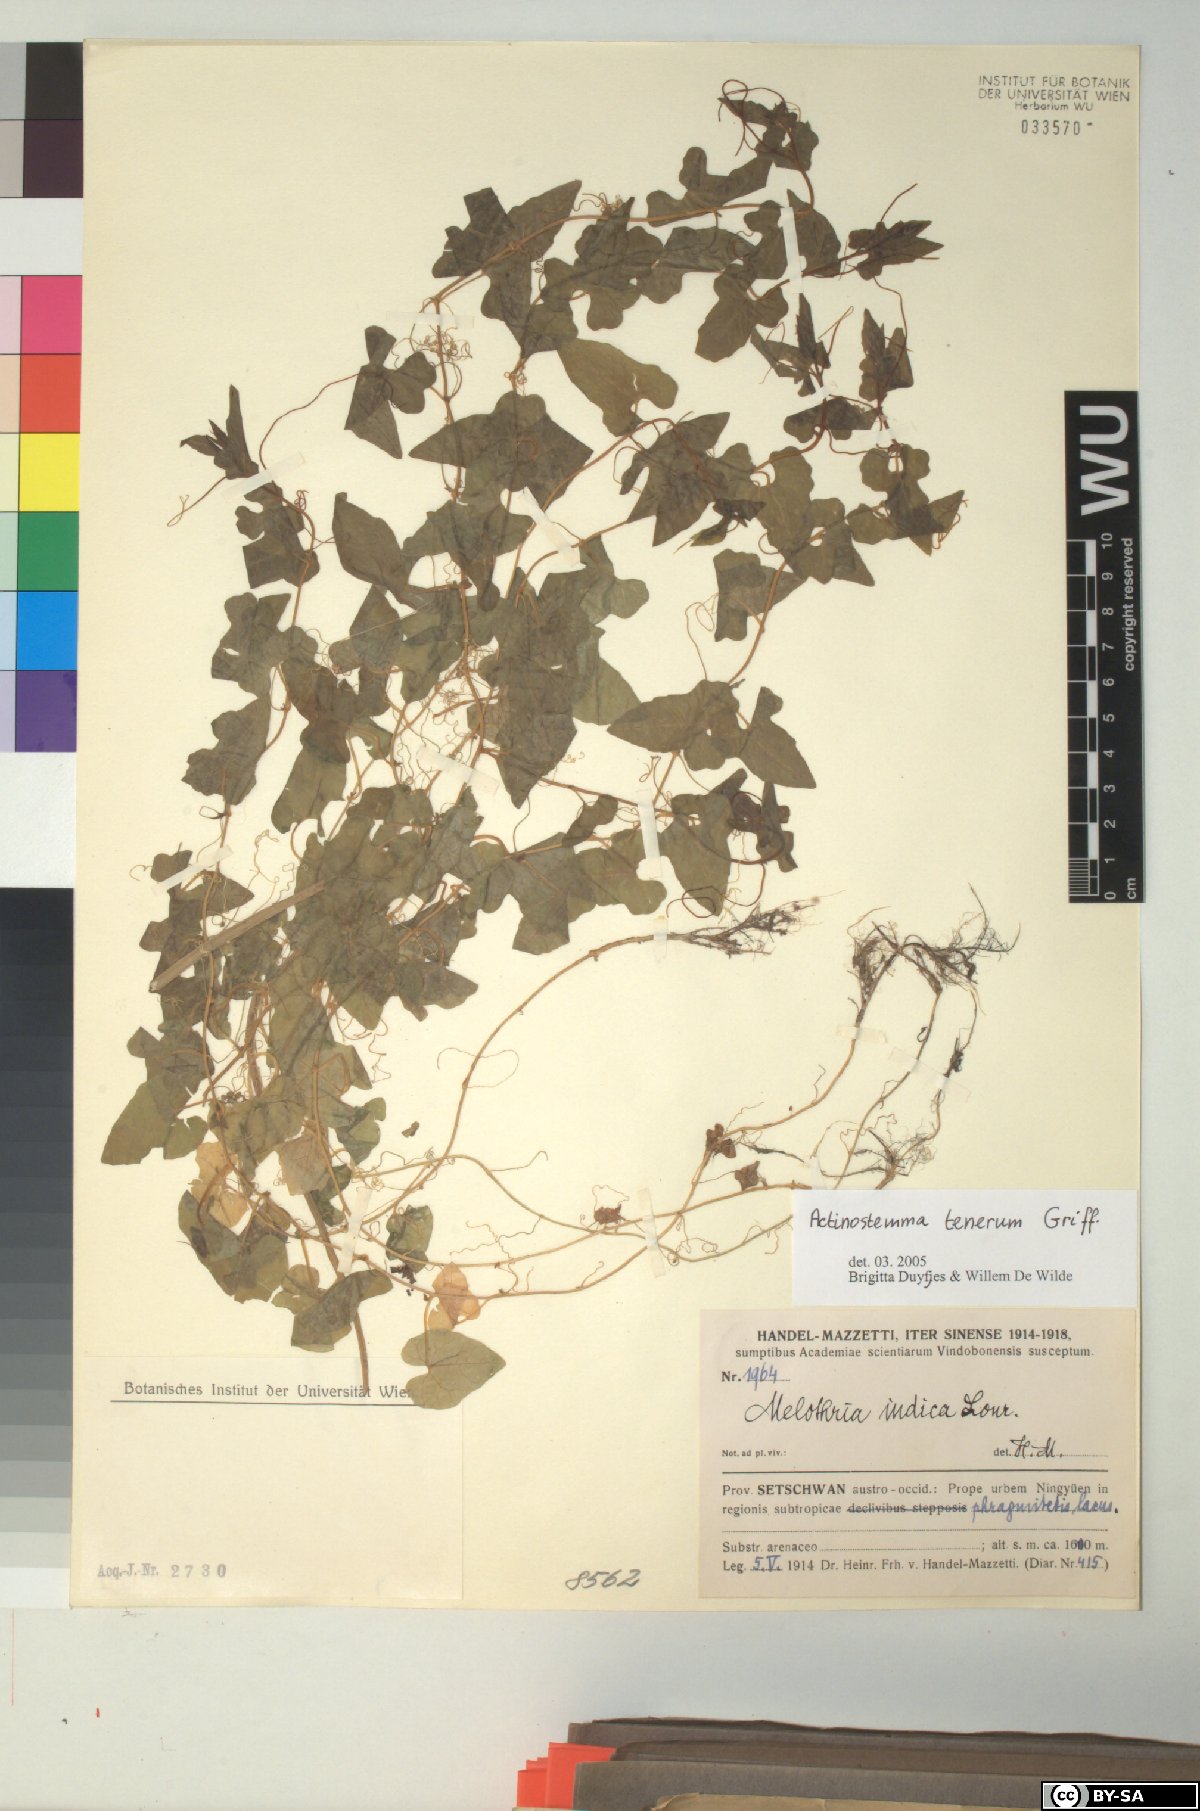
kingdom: Plantae
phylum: Tracheophyta
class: Magnoliopsida
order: Cucurbitales
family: Cucurbitaceae
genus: Actinostemma
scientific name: Actinostemma tenerum
